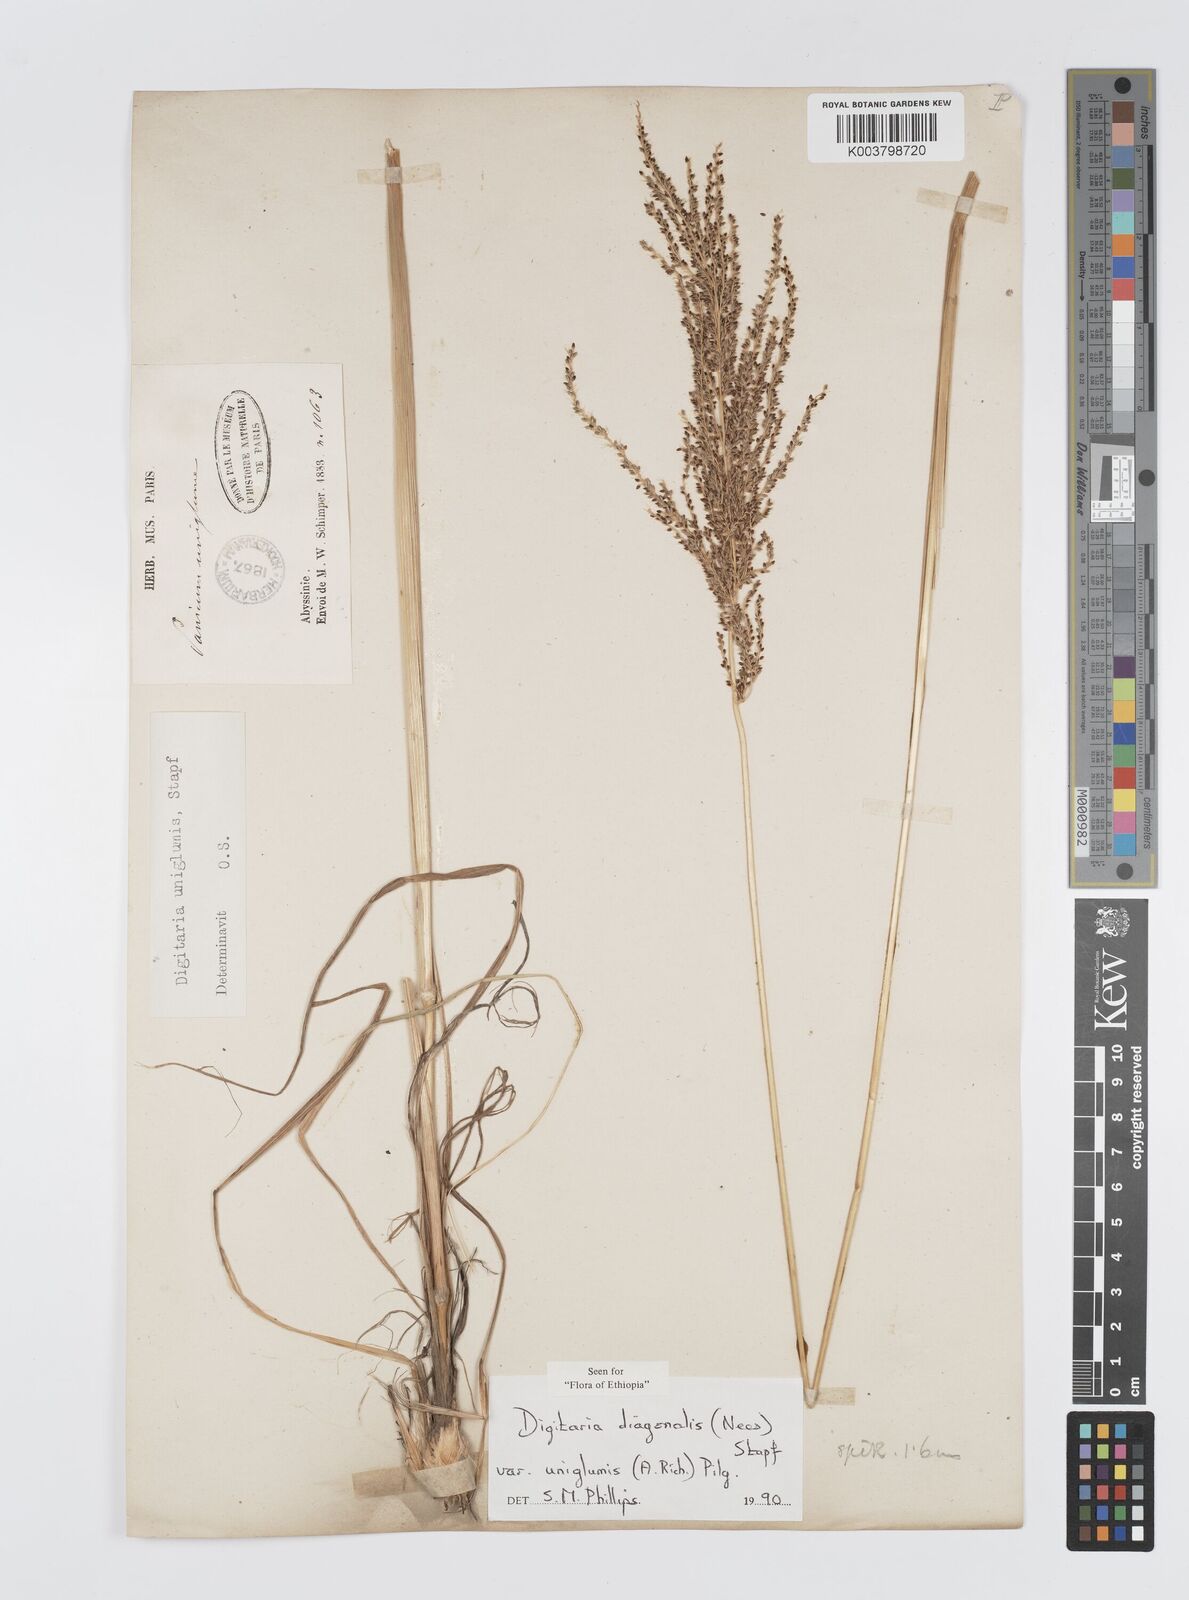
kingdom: Plantae
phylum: Tracheophyta
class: Liliopsida
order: Poales
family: Poaceae
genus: Digitaria
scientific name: Digitaria diagonalis
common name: Brown-seed finger grass
